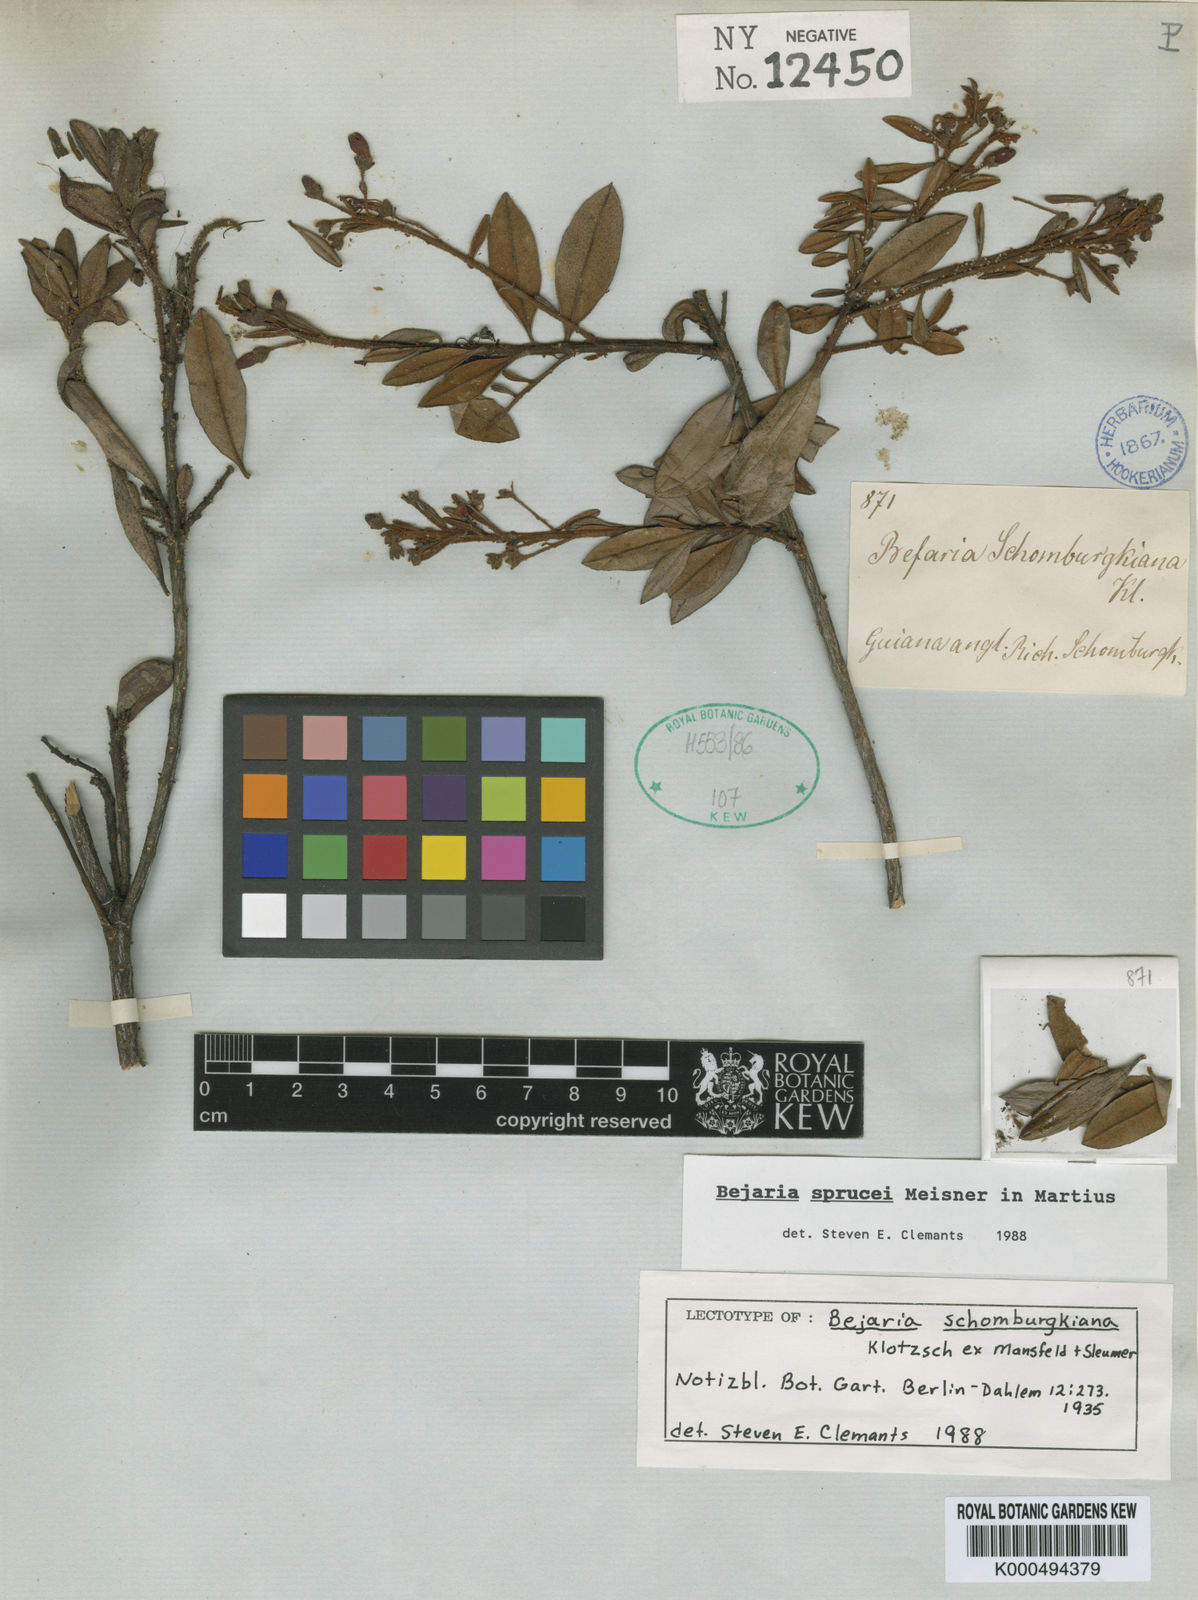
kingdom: Plantae
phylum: Tracheophyta
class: Magnoliopsida
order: Ericales
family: Ericaceae
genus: Bejaria
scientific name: Bejaria sprucei
